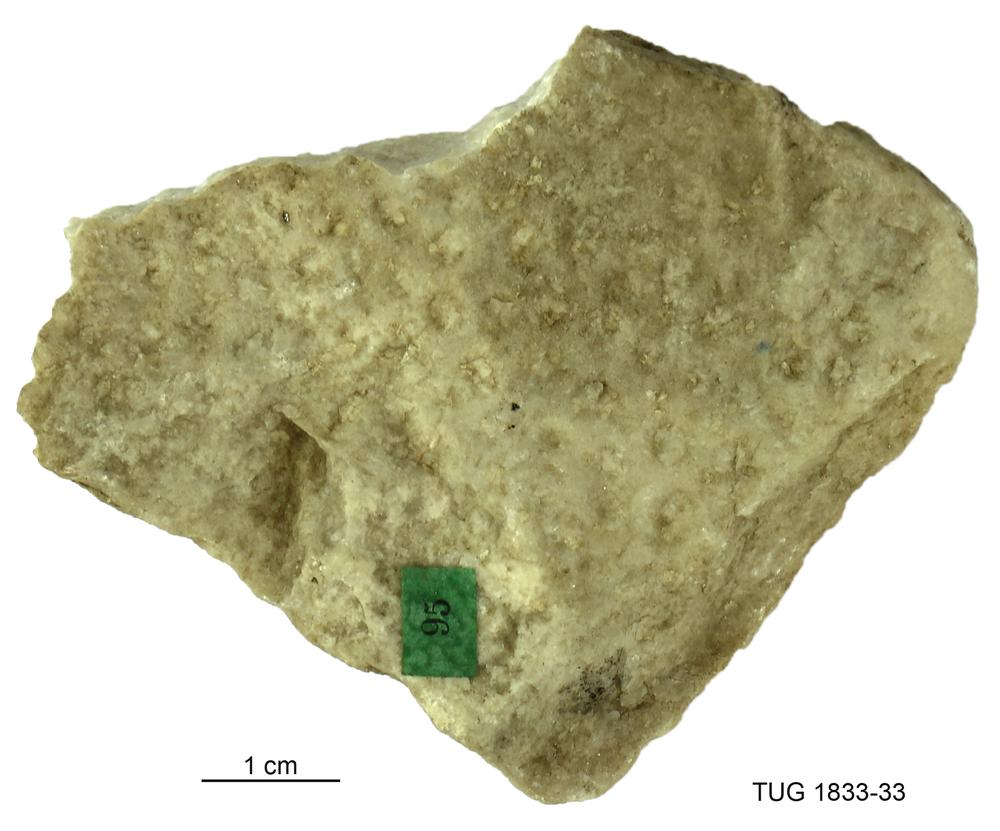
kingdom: Animalia
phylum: Porifera
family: Ecclimadictyidae
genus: Ecclimadictyon
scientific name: Ecclimadictyon arcuatum
